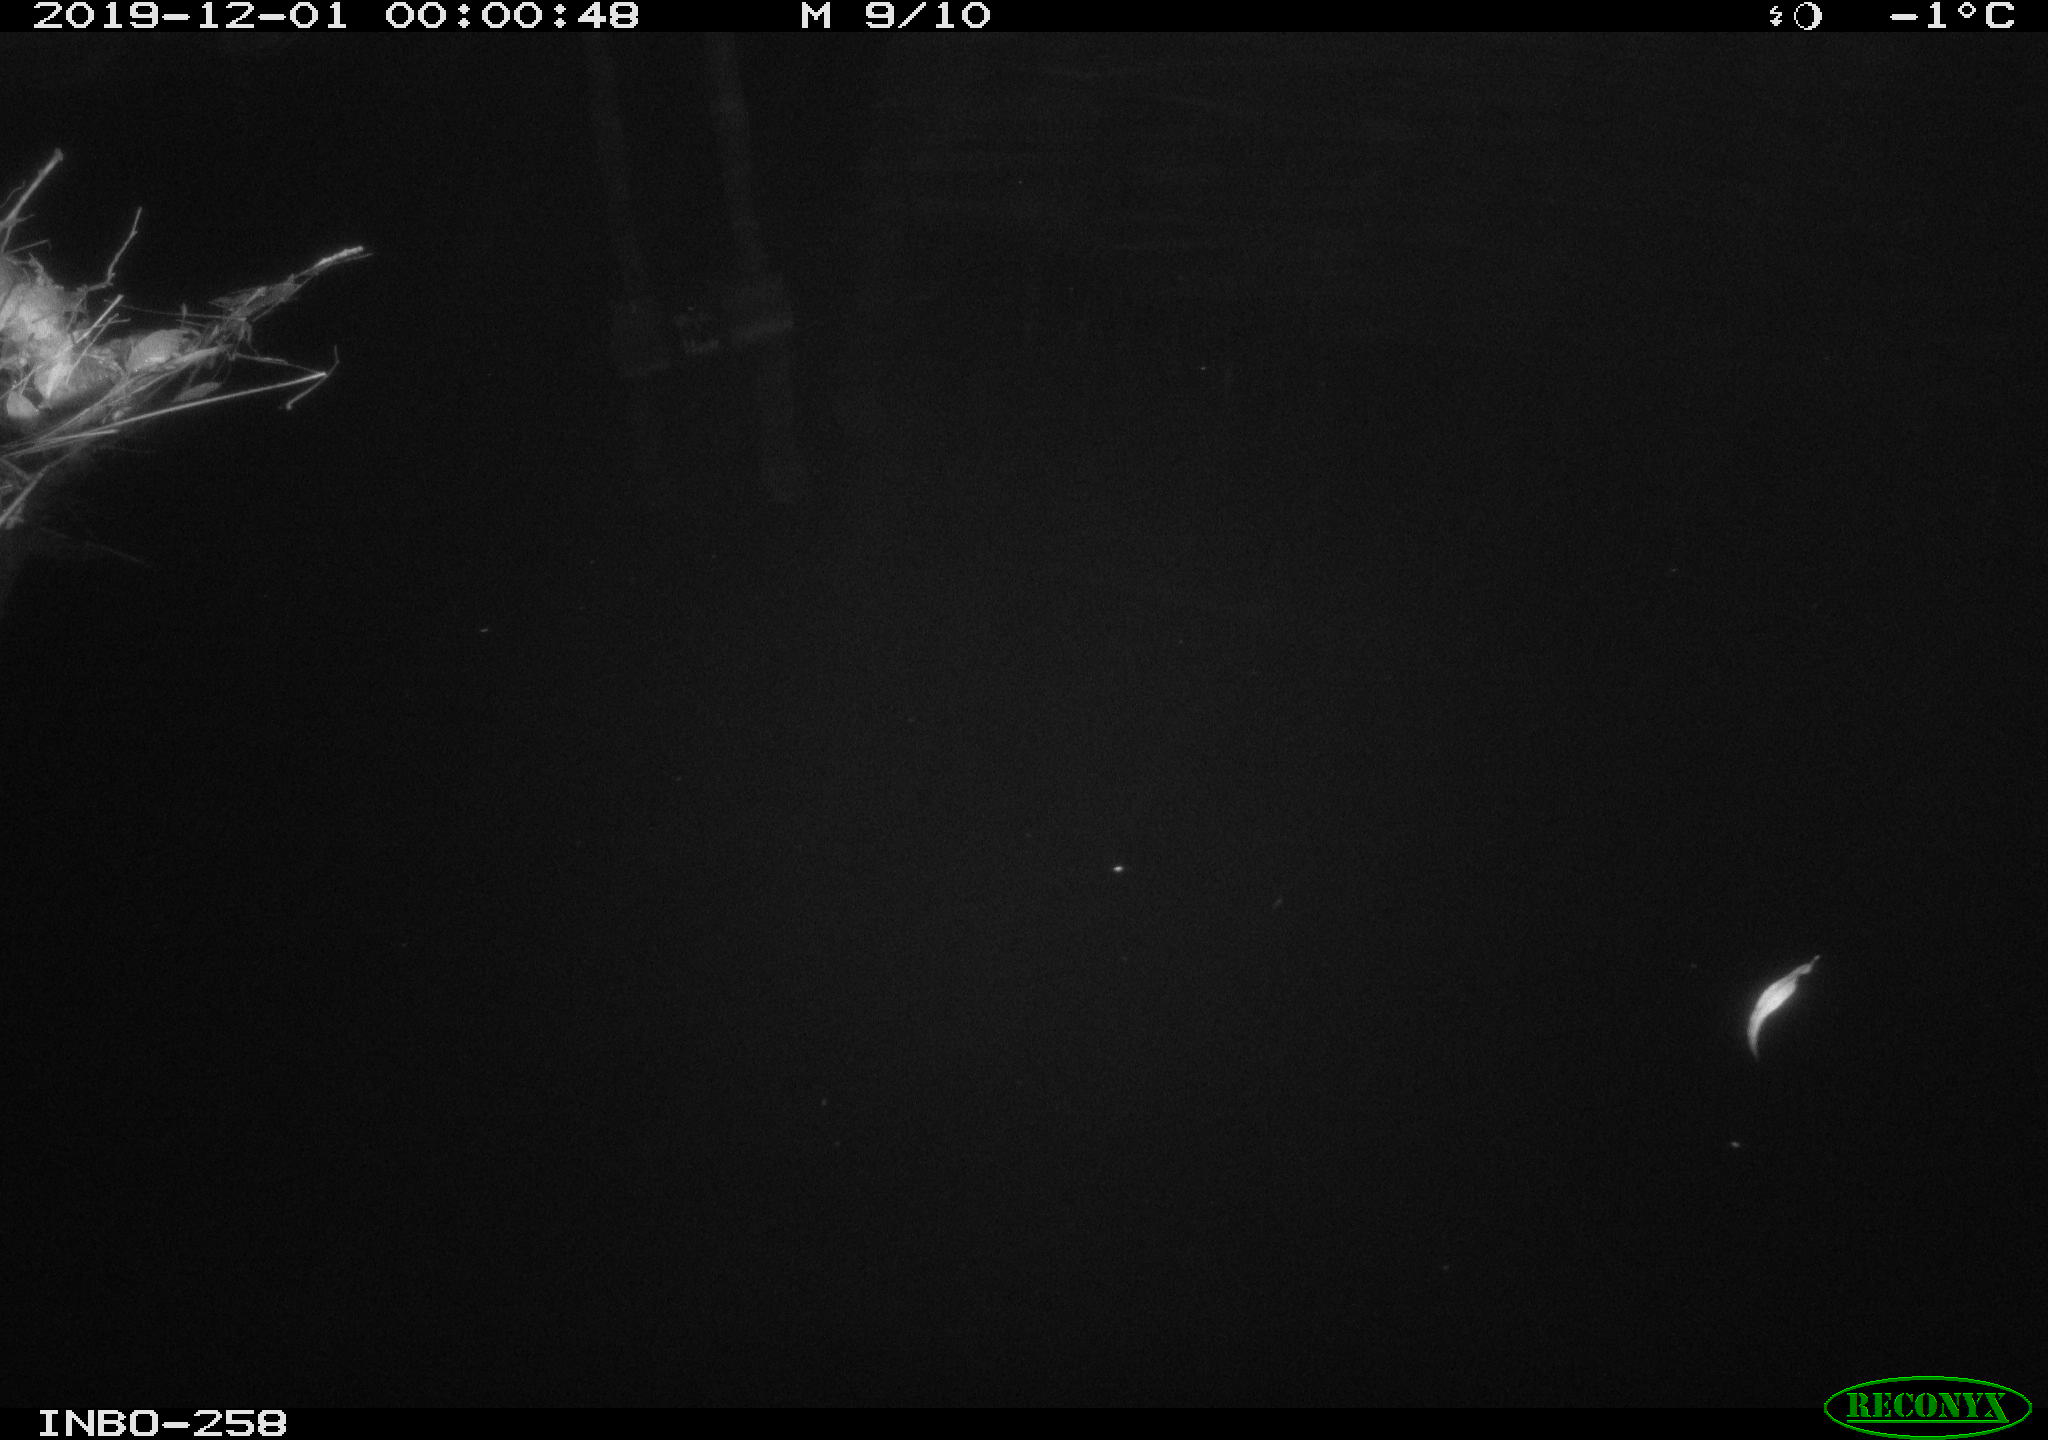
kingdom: Animalia
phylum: Chordata
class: Aves
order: Anseriformes
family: Anatidae
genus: Anas
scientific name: Anas platyrhynchos
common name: Mallard
